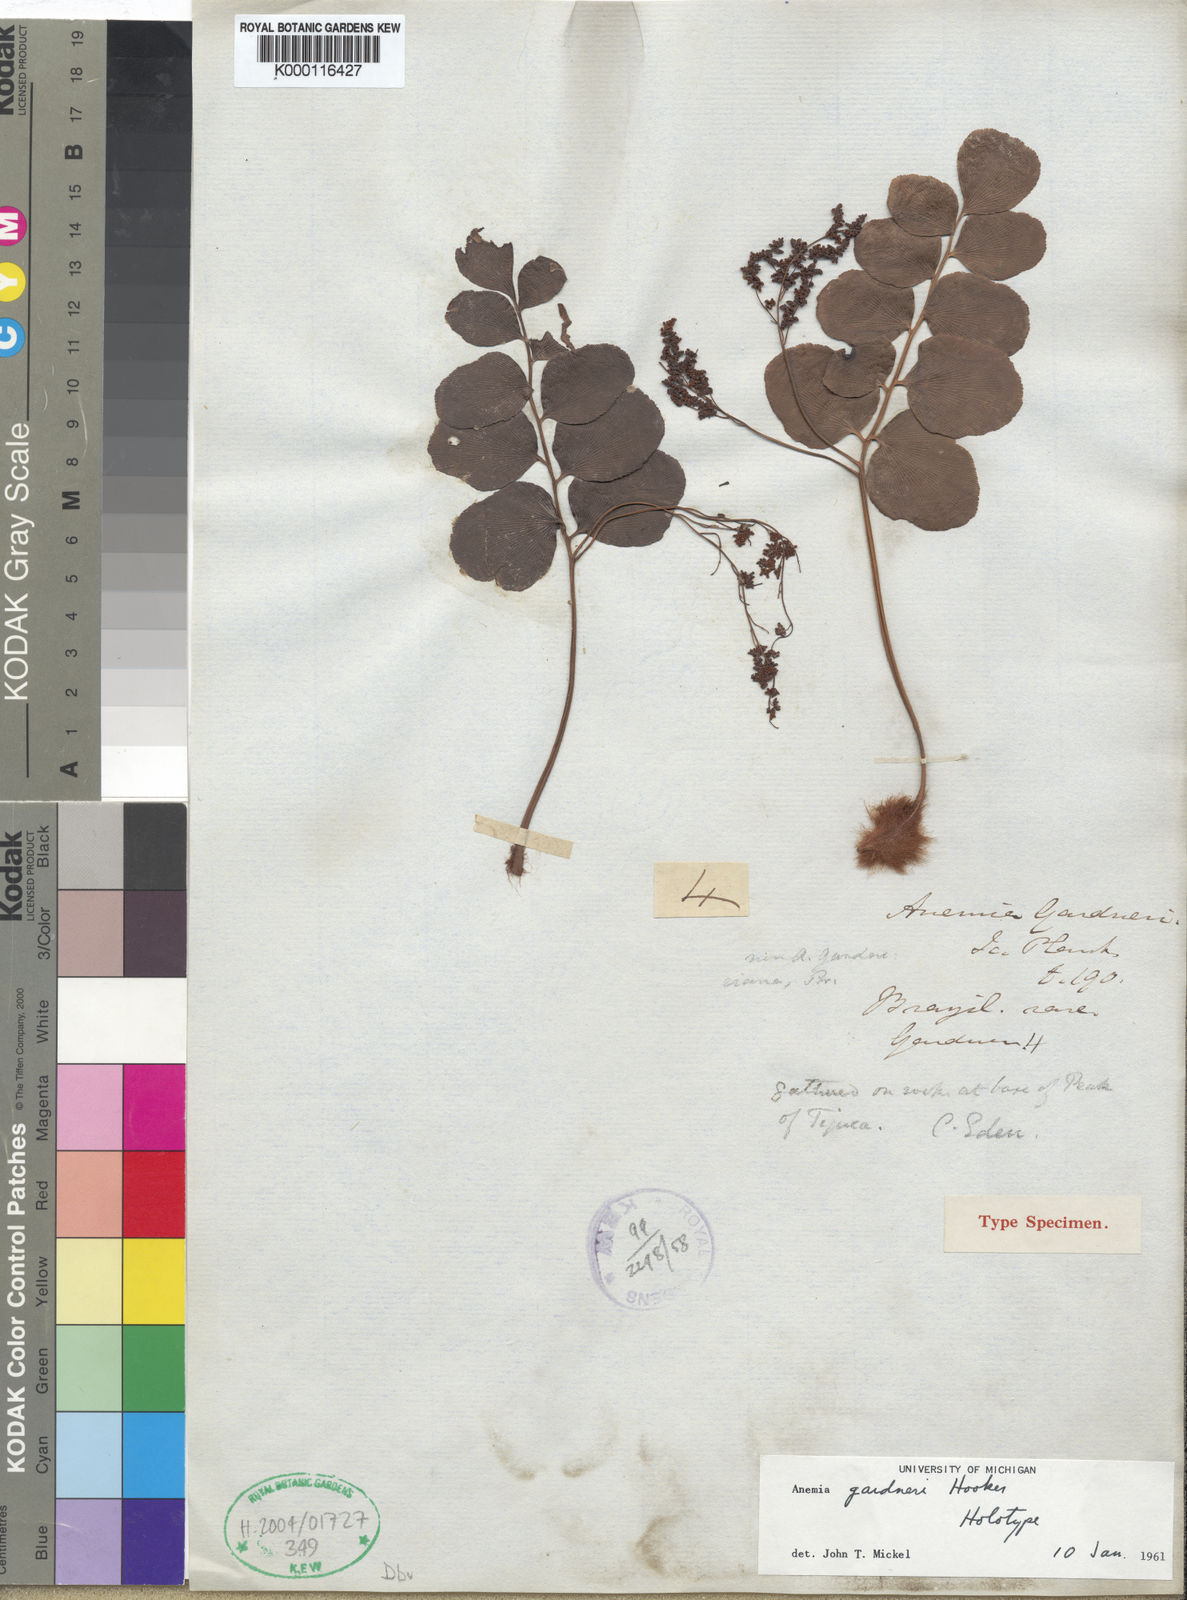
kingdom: Plantae
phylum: Tracheophyta
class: Polypodiopsida
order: Schizaeales
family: Anemiaceae
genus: Anemia
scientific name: Anemia gardneri
